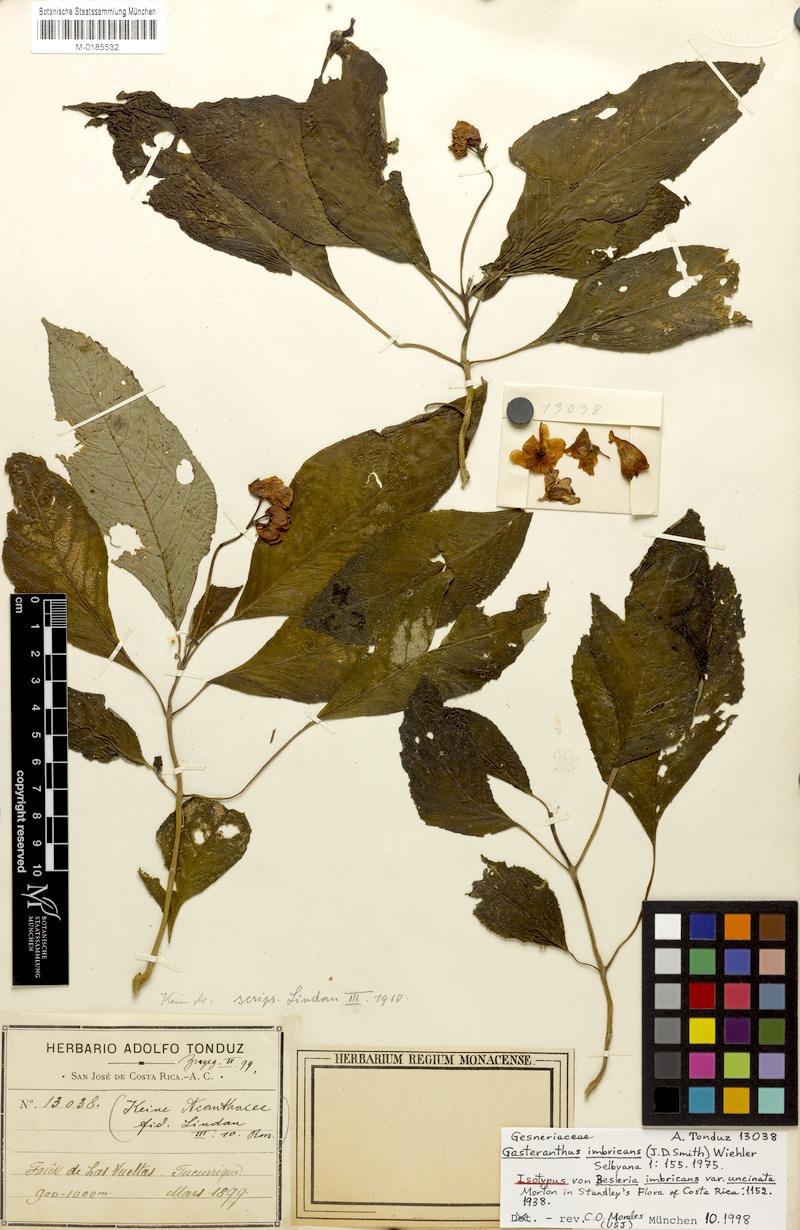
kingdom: Plantae
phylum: Tracheophyta
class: Magnoliopsida
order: Lamiales
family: Gesneriaceae
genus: Gasteranthus
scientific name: Gasteranthus imbricans
